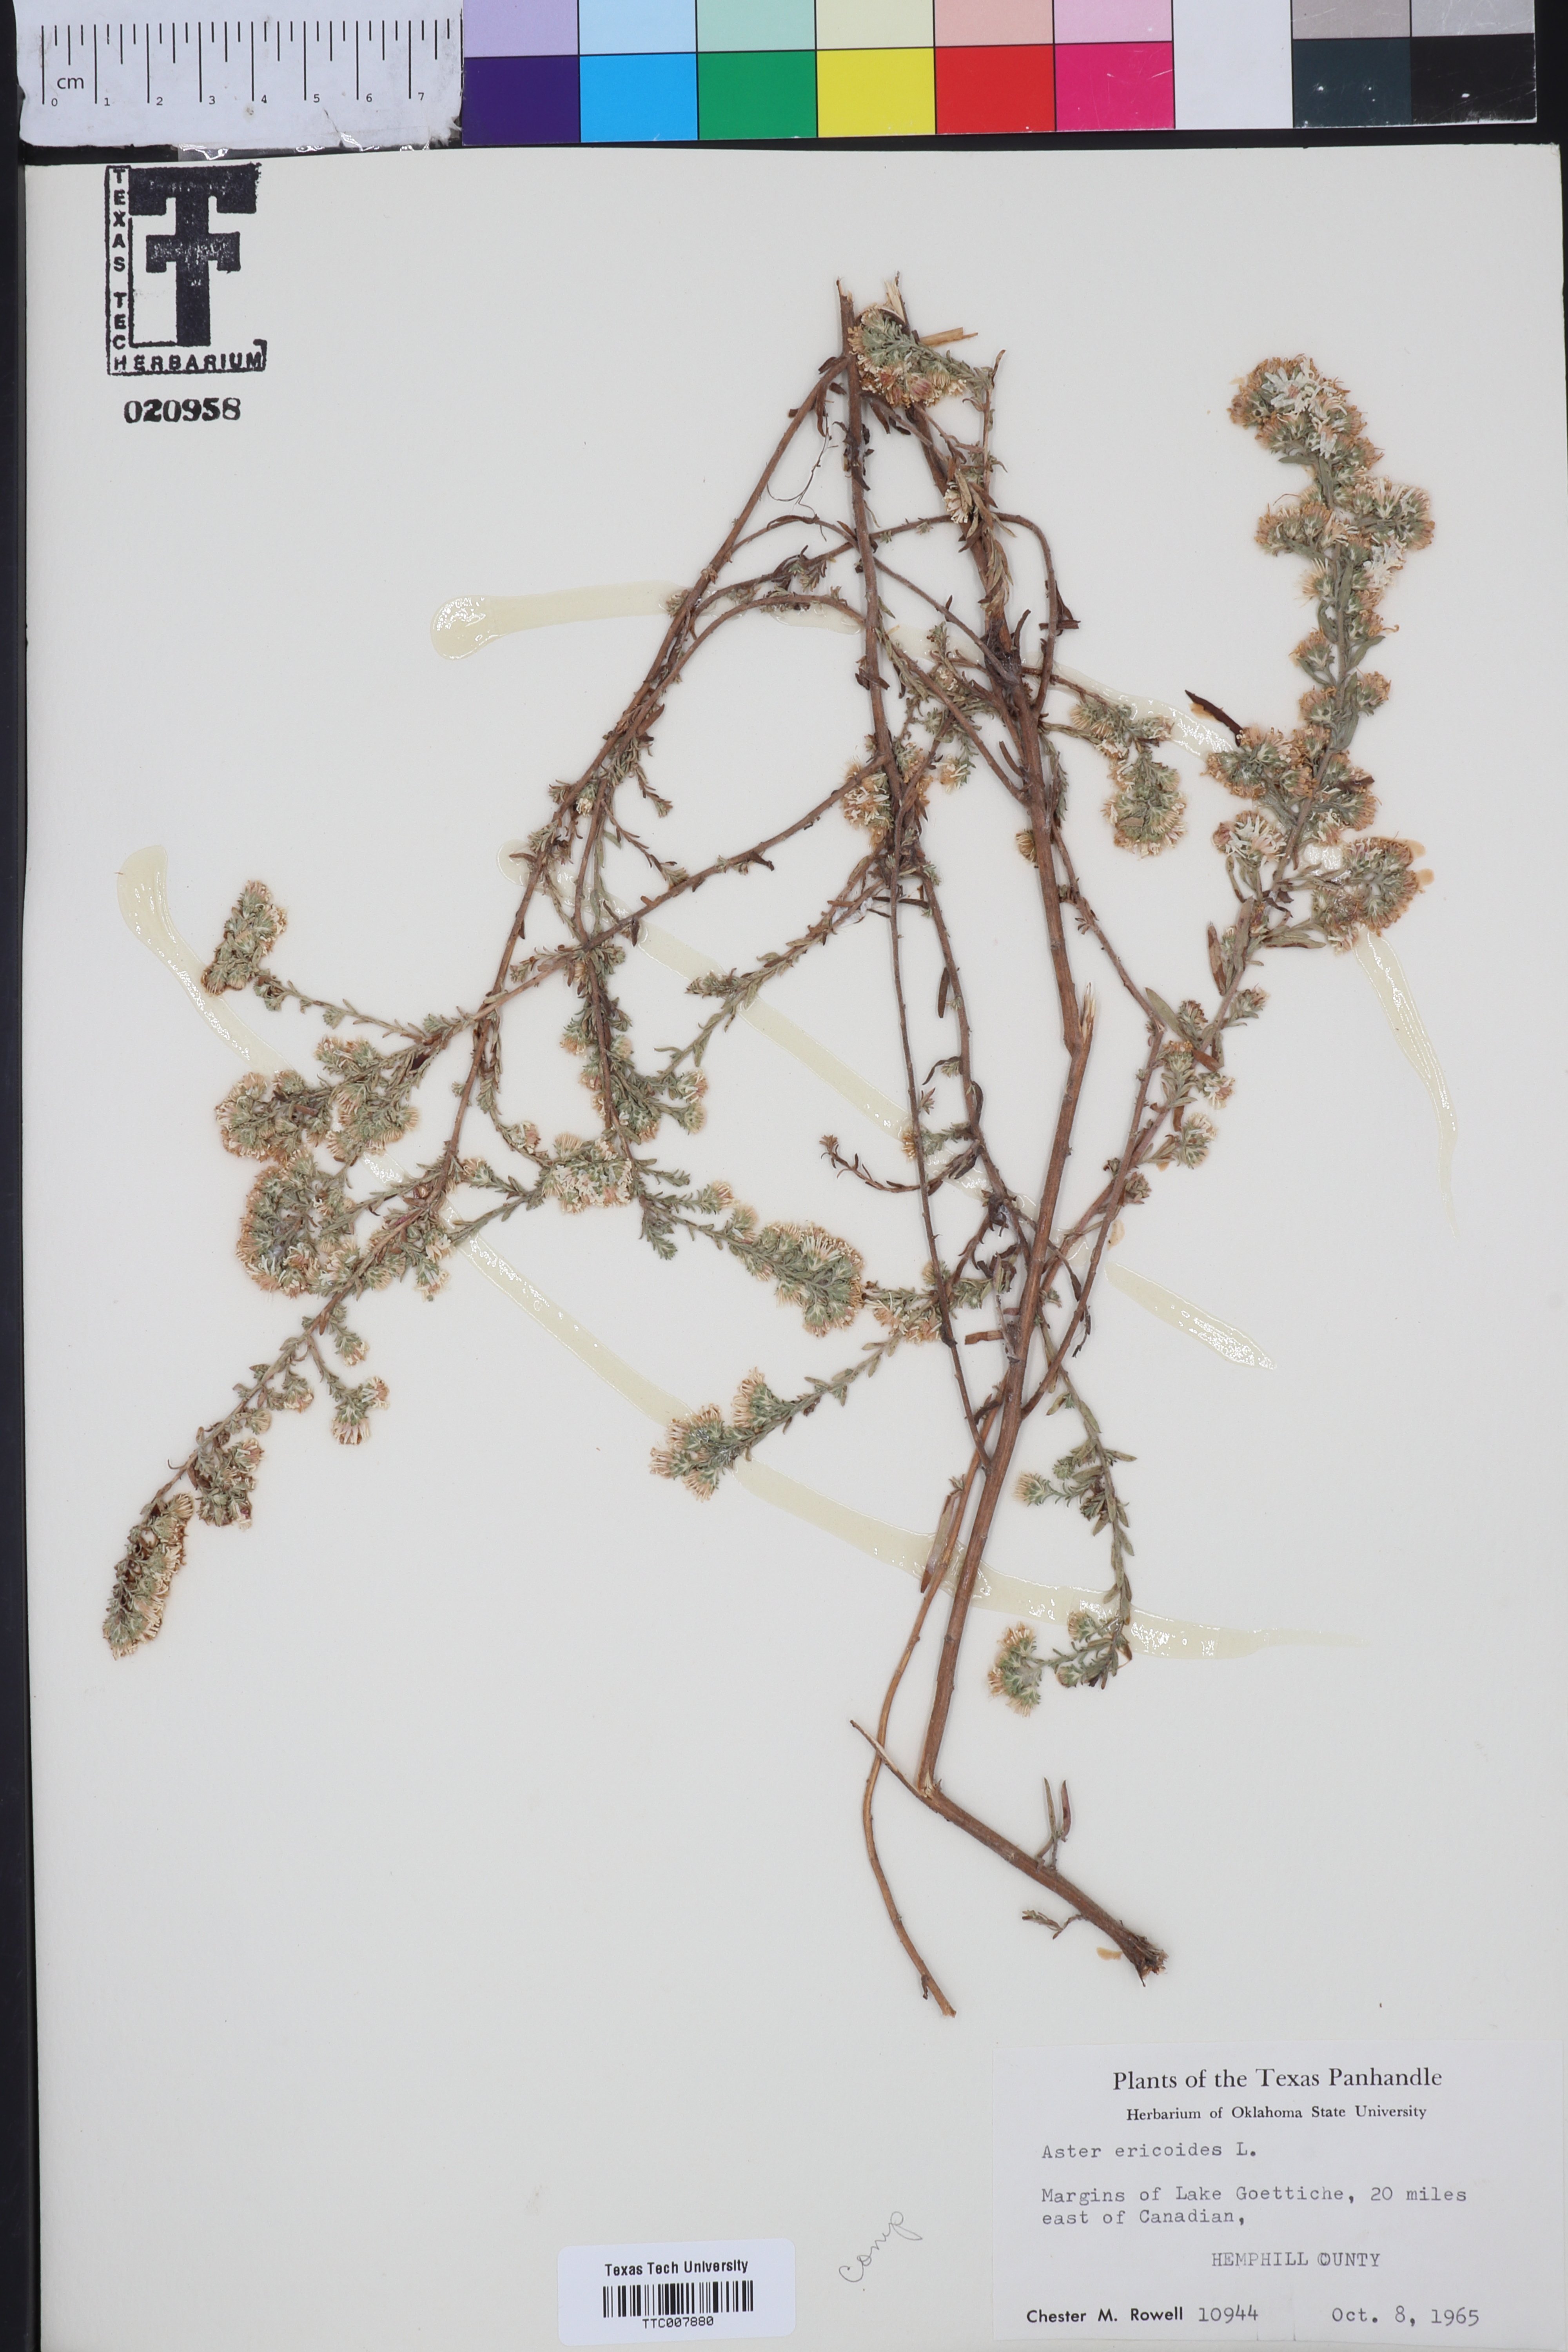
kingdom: Plantae
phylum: Tracheophyta
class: Magnoliopsida
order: Asterales
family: Asteraceae
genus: Symphyotrichum
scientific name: Symphyotrichum ericoides
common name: Heath aster
